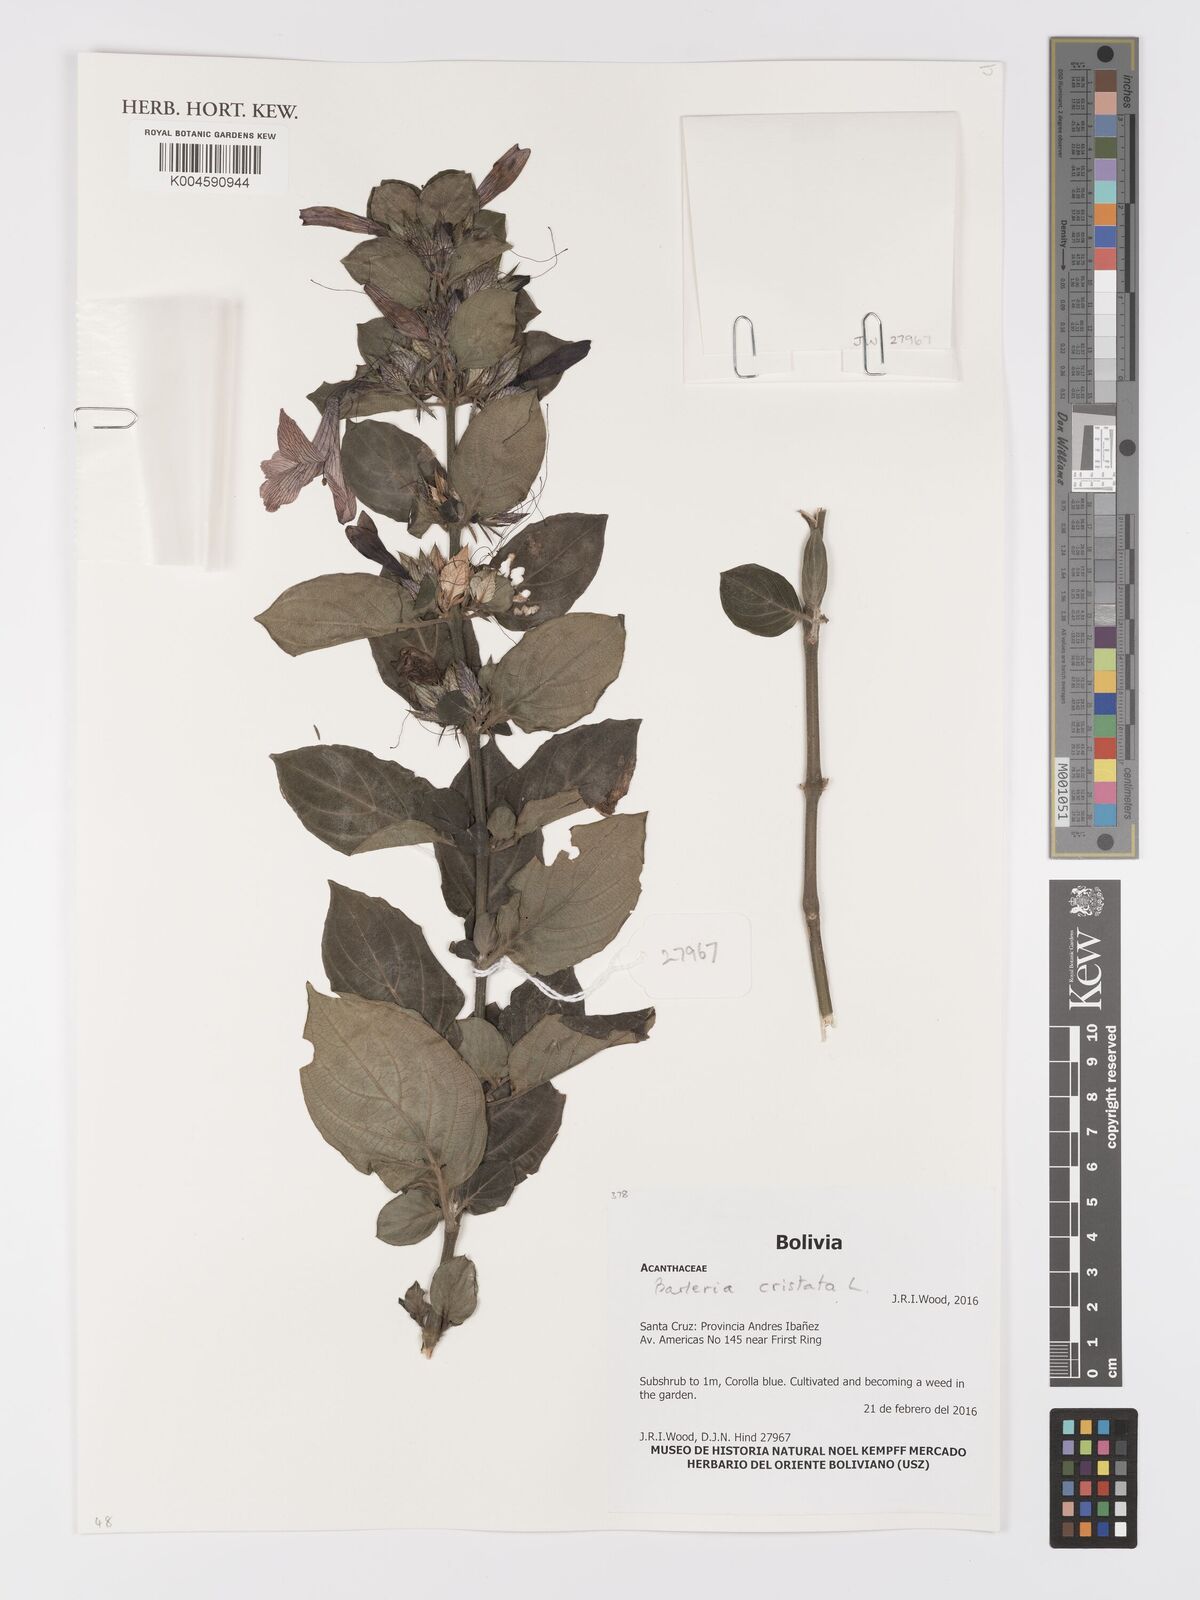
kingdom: Plantae
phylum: Tracheophyta
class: Magnoliopsida
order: Lamiales
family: Acanthaceae
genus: Barleria
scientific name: Barleria cristata
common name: Crested philippine violet
